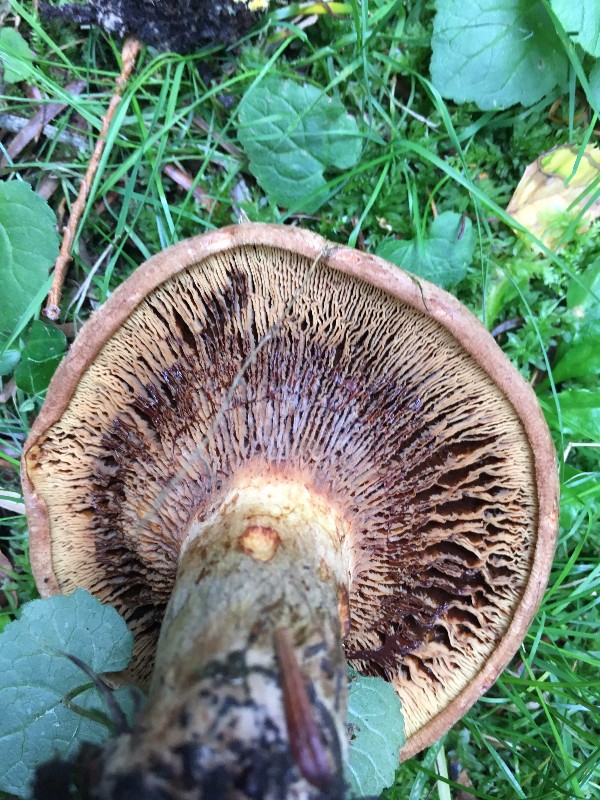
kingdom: Fungi
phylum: Basidiomycota
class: Agaricomycetes
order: Boletales
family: Paxillaceae
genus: Paxillus
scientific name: Paxillus
